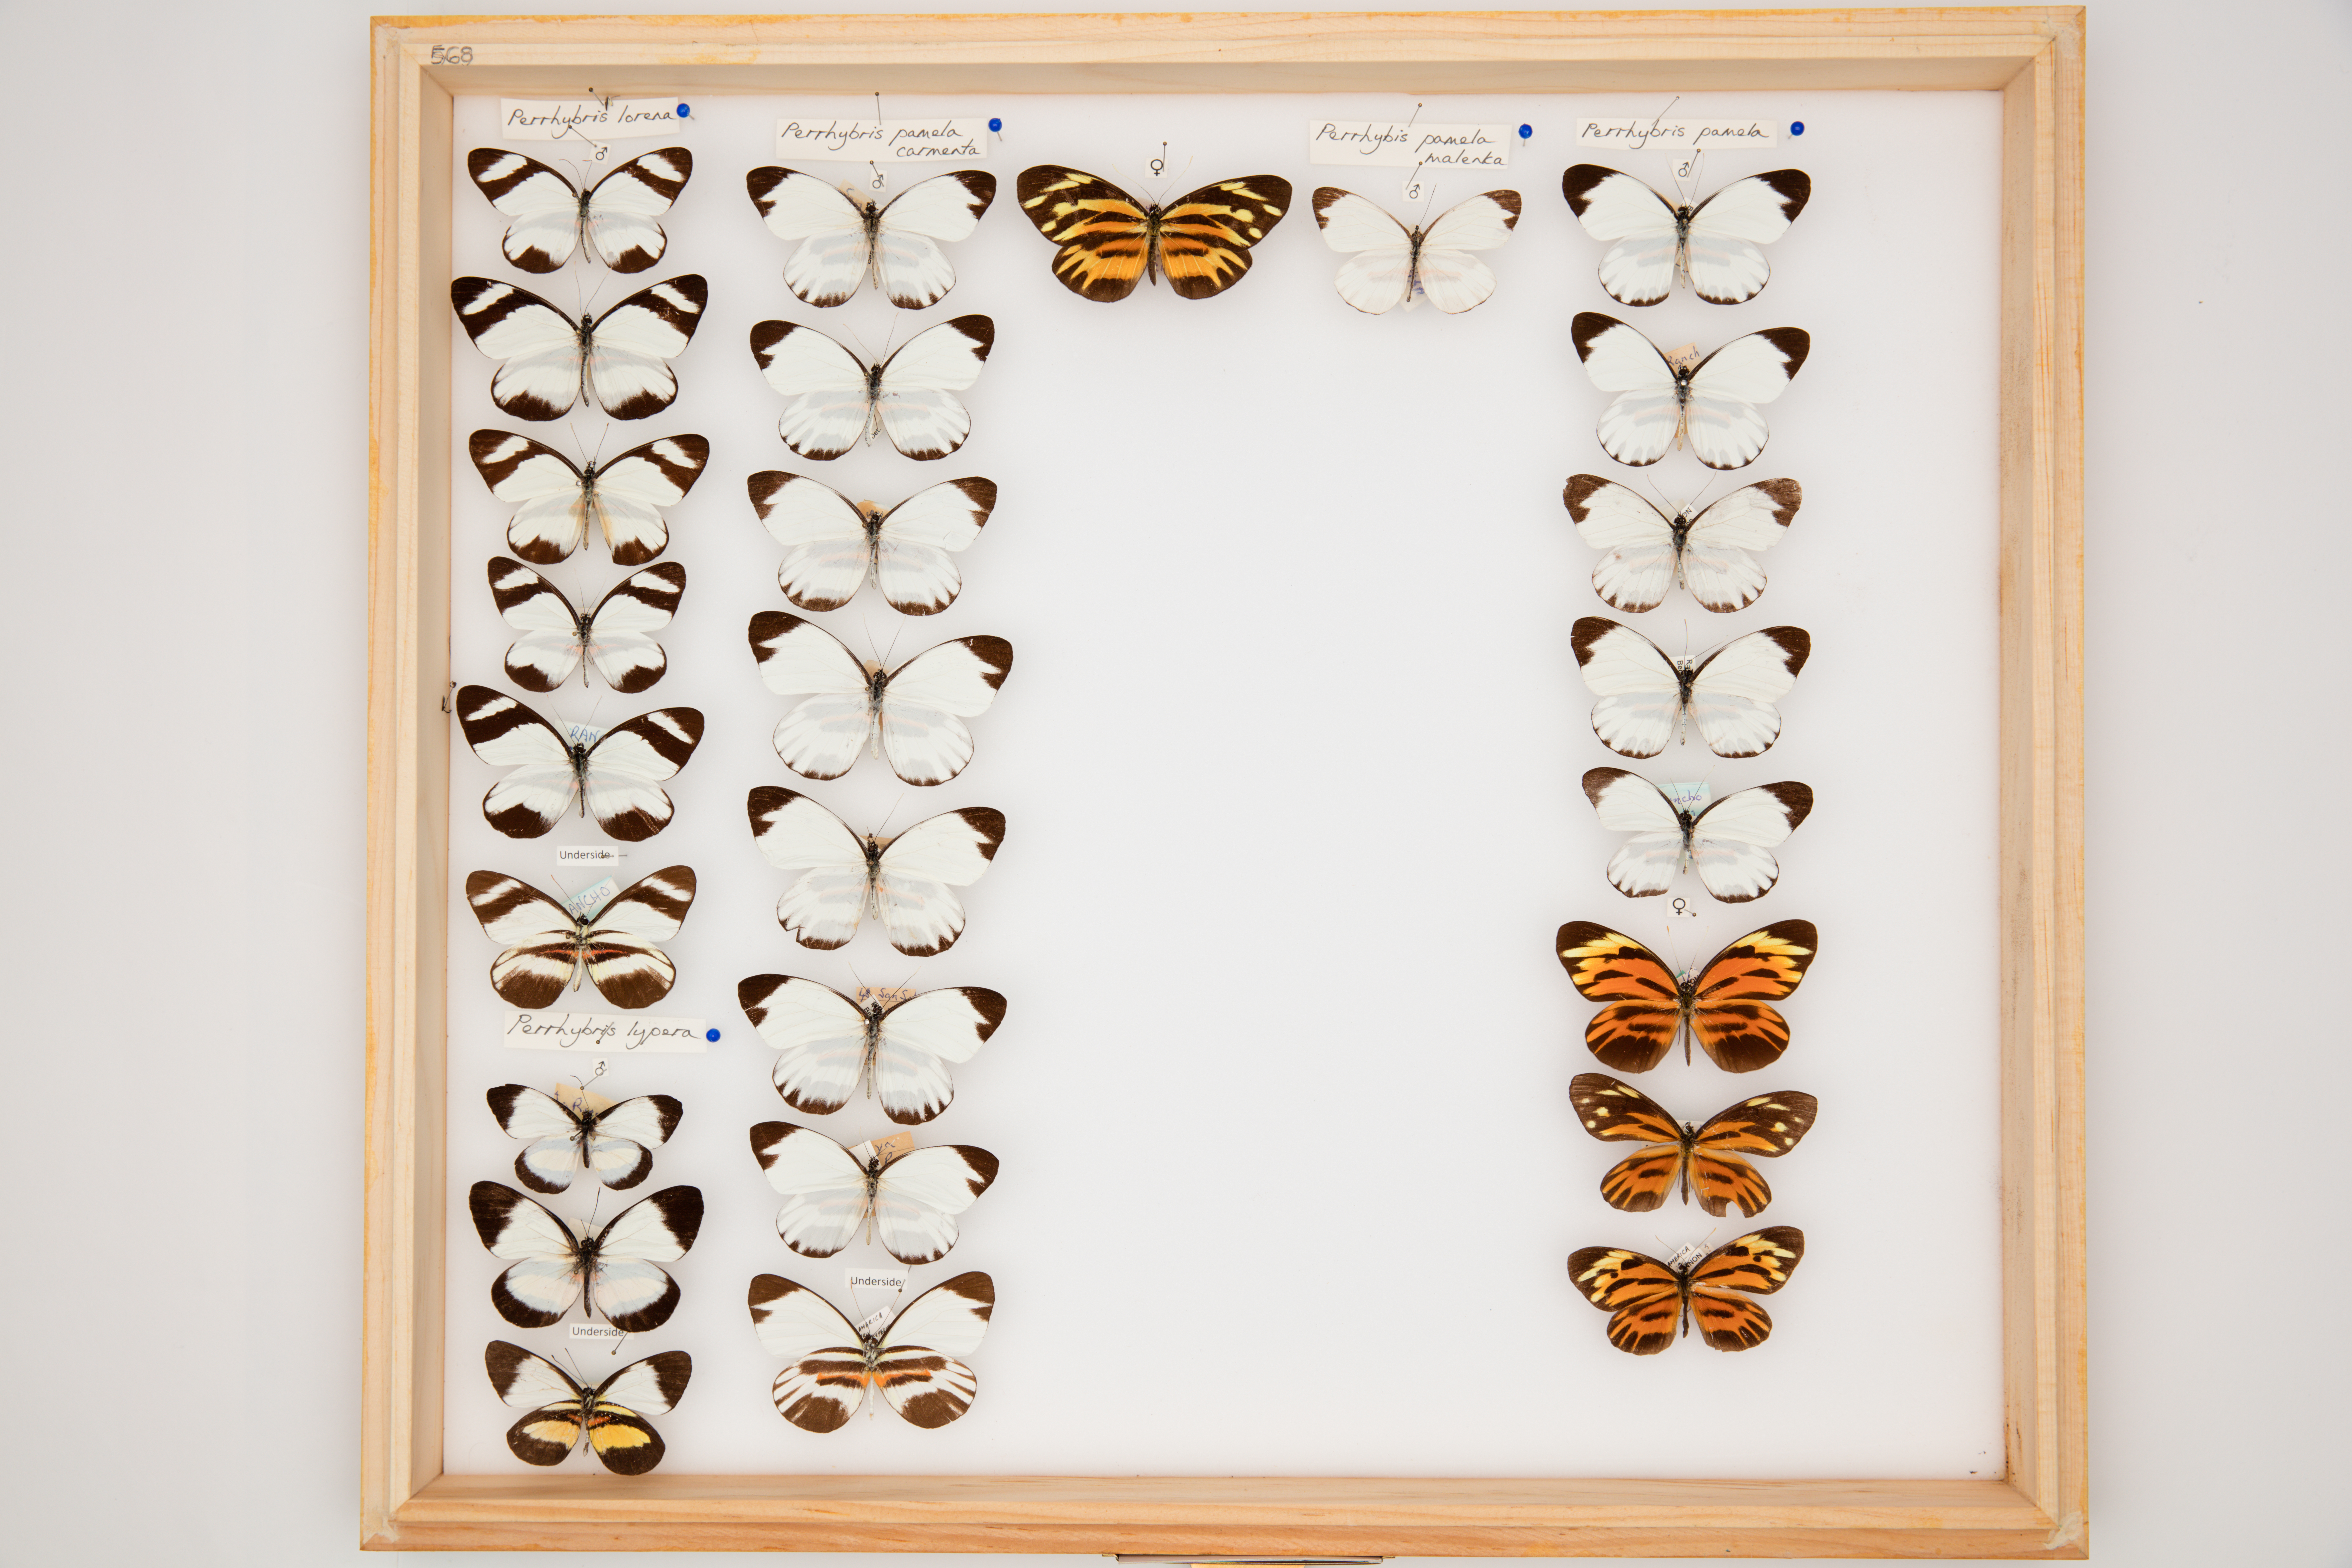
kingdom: Animalia
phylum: Arthropoda
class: Insecta
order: Lepidoptera
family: Pieridae
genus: Perrhybris
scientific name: Perrhybris pamela
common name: Chiapas white
